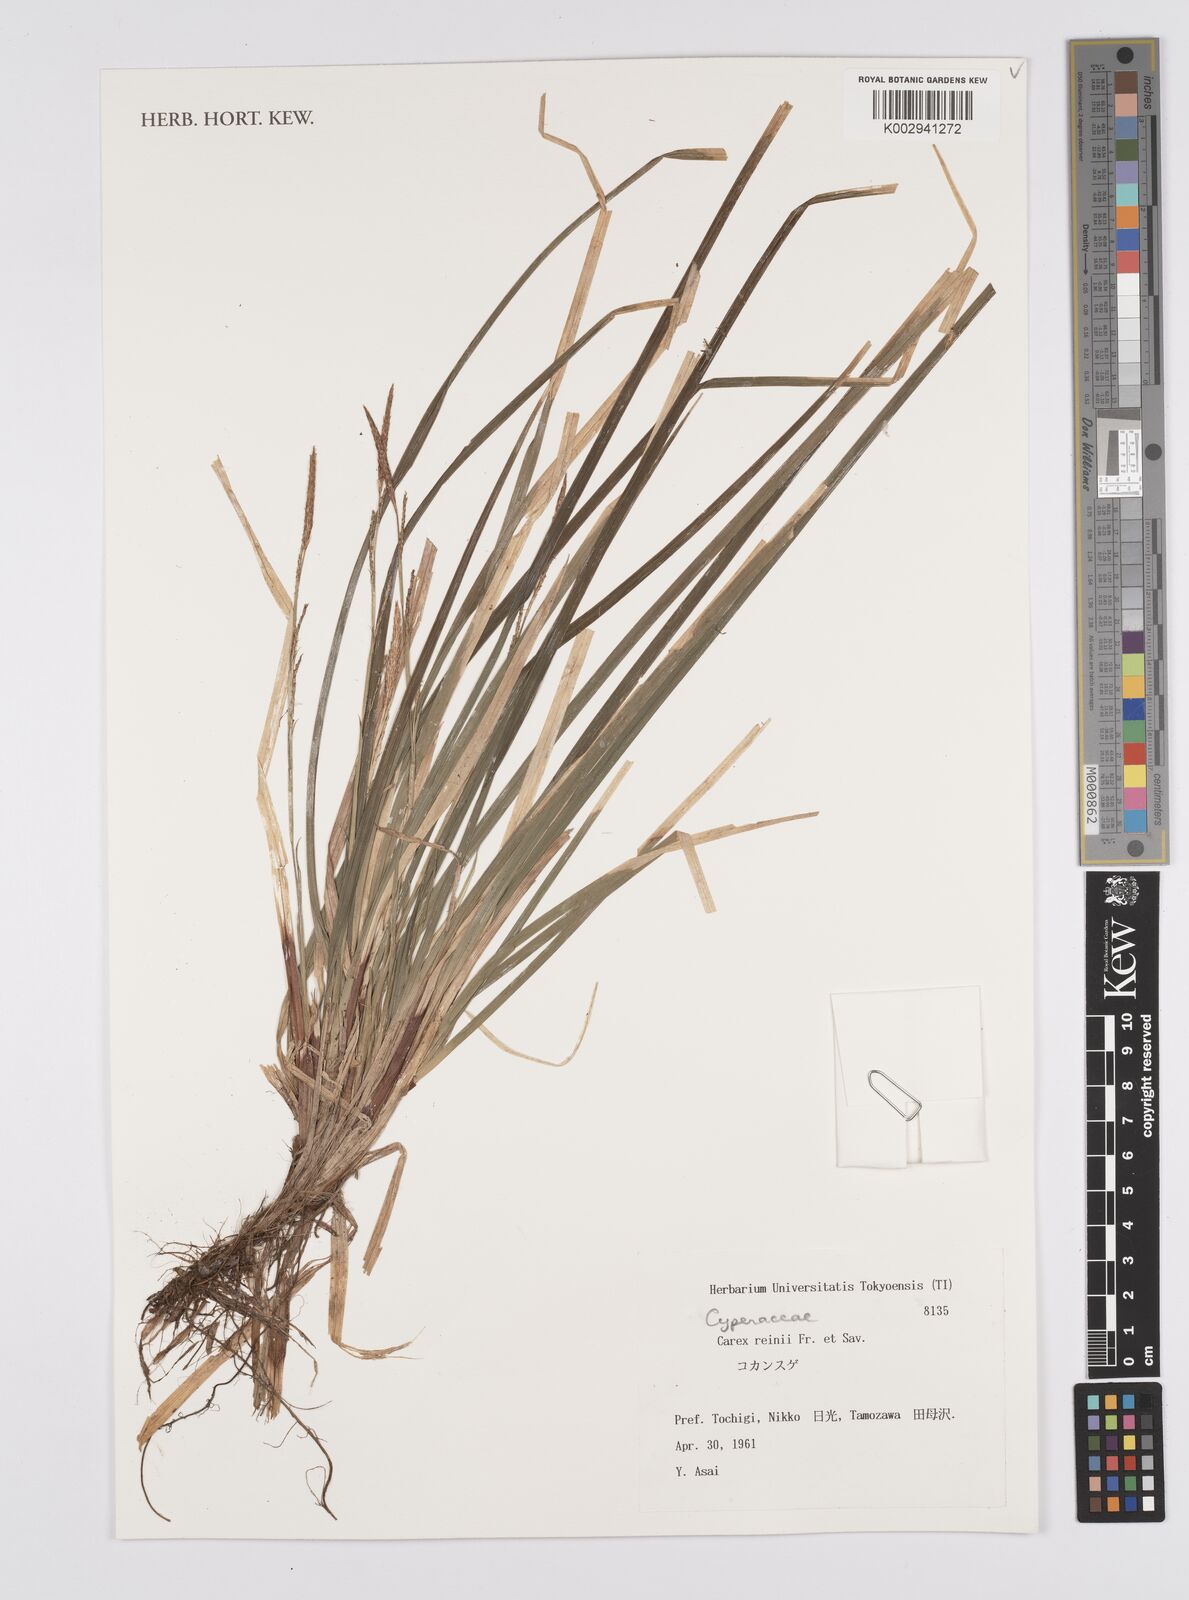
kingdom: Plantae
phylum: Tracheophyta
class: Liliopsida
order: Poales
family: Cyperaceae
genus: Carex
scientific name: Carex reinii
